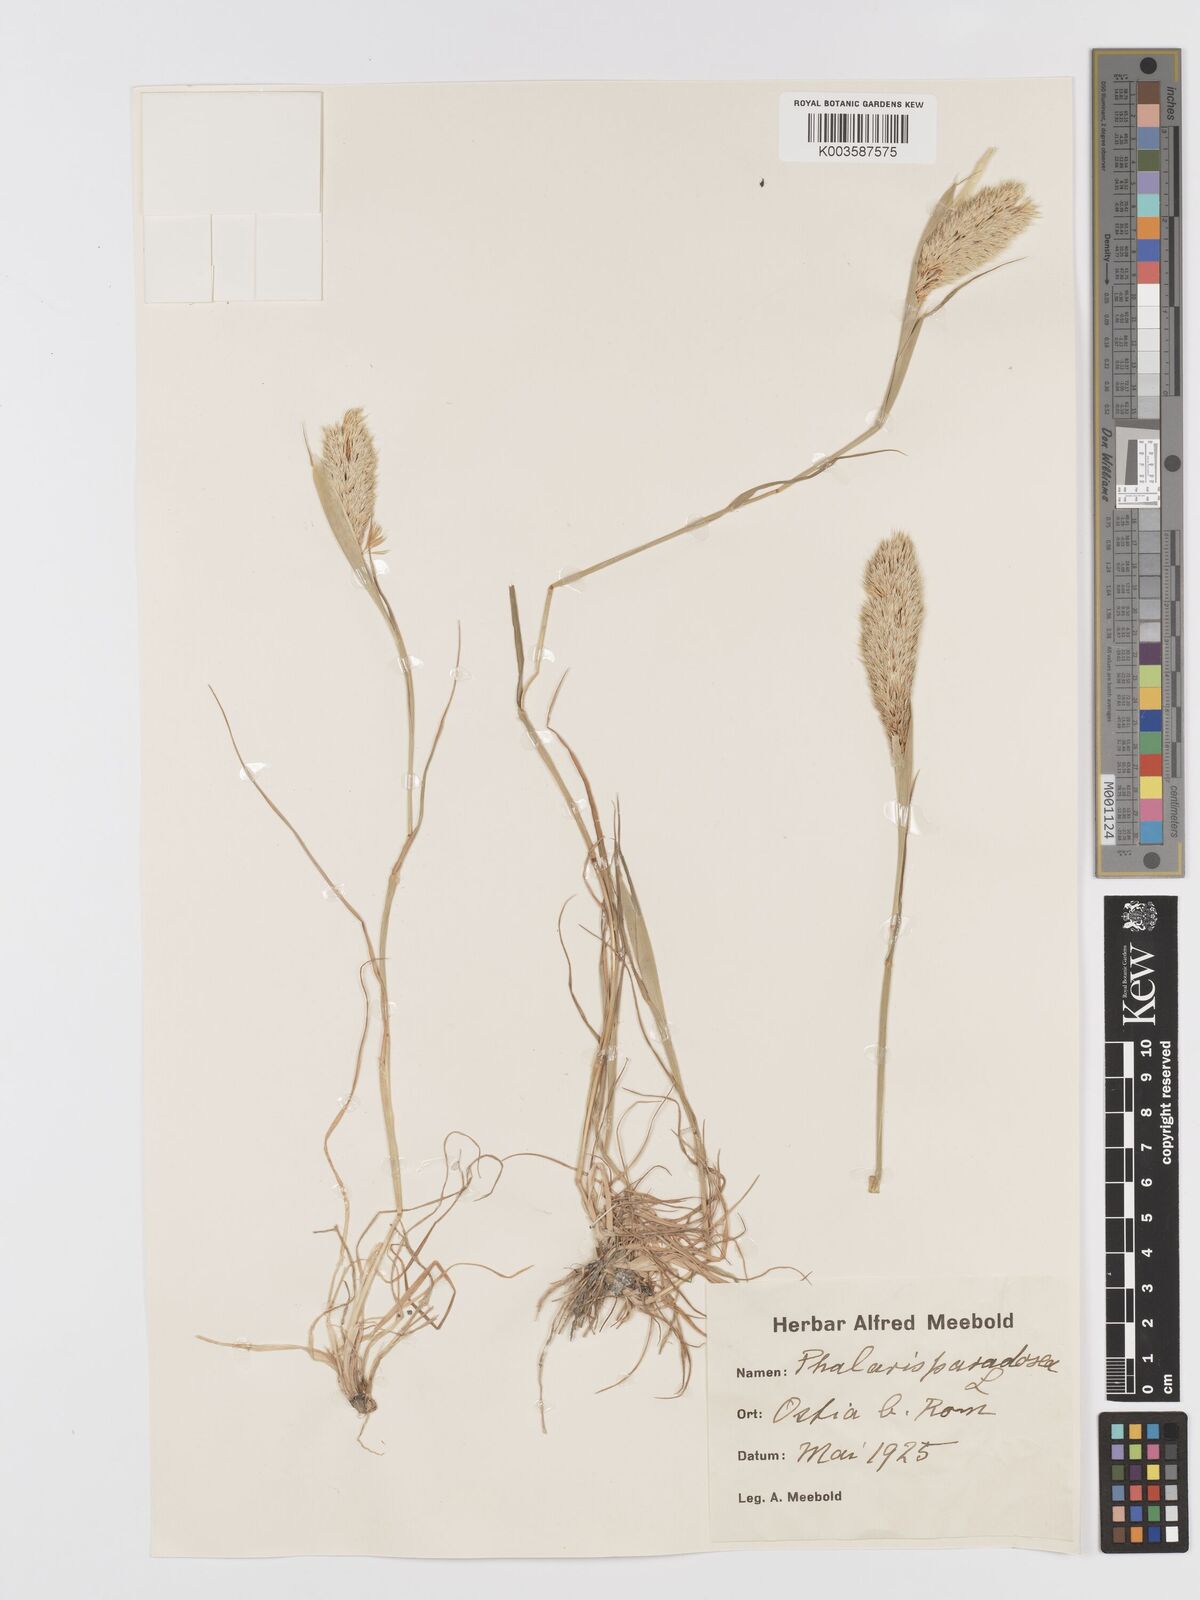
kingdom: Plantae
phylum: Tracheophyta
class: Liliopsida
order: Poales
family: Poaceae
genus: Phalaris
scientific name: Phalaris paradoxa
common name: Awned canary-grass
